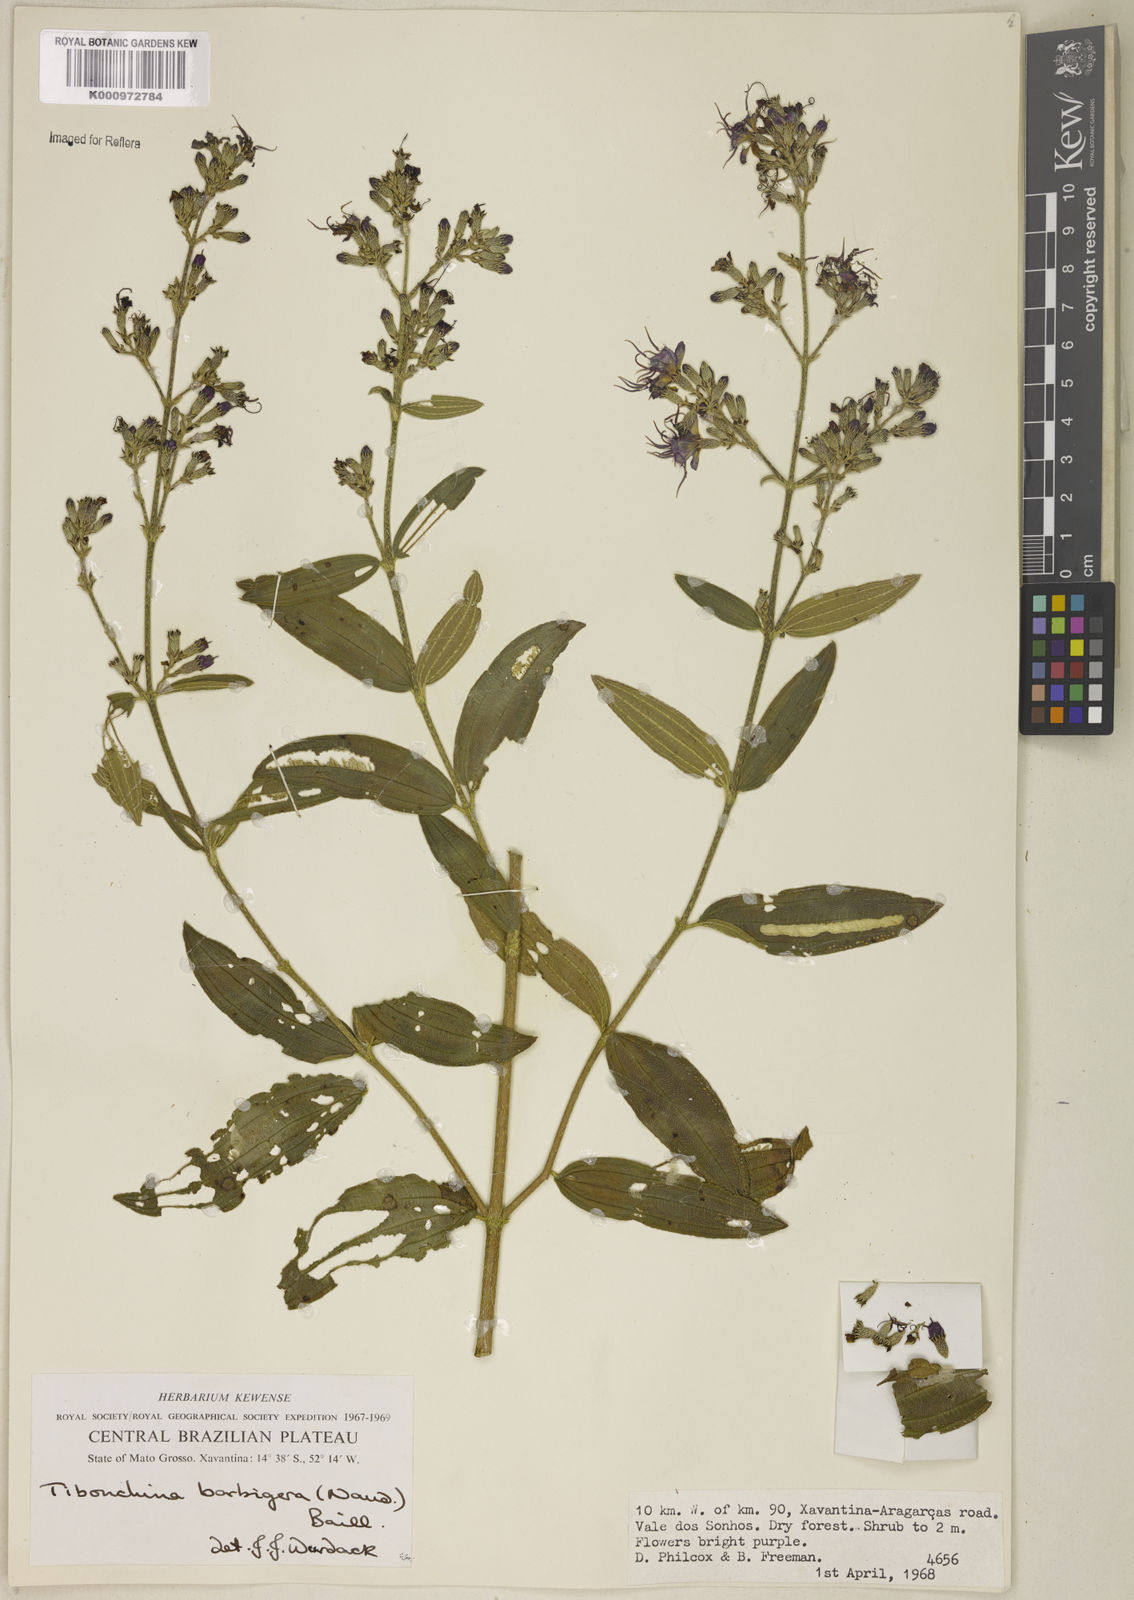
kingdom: Plantae
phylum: Tracheophyta
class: Magnoliopsida
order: Myrtales
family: Melastomataceae
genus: Pleroma
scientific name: Pleroma barbigerum
